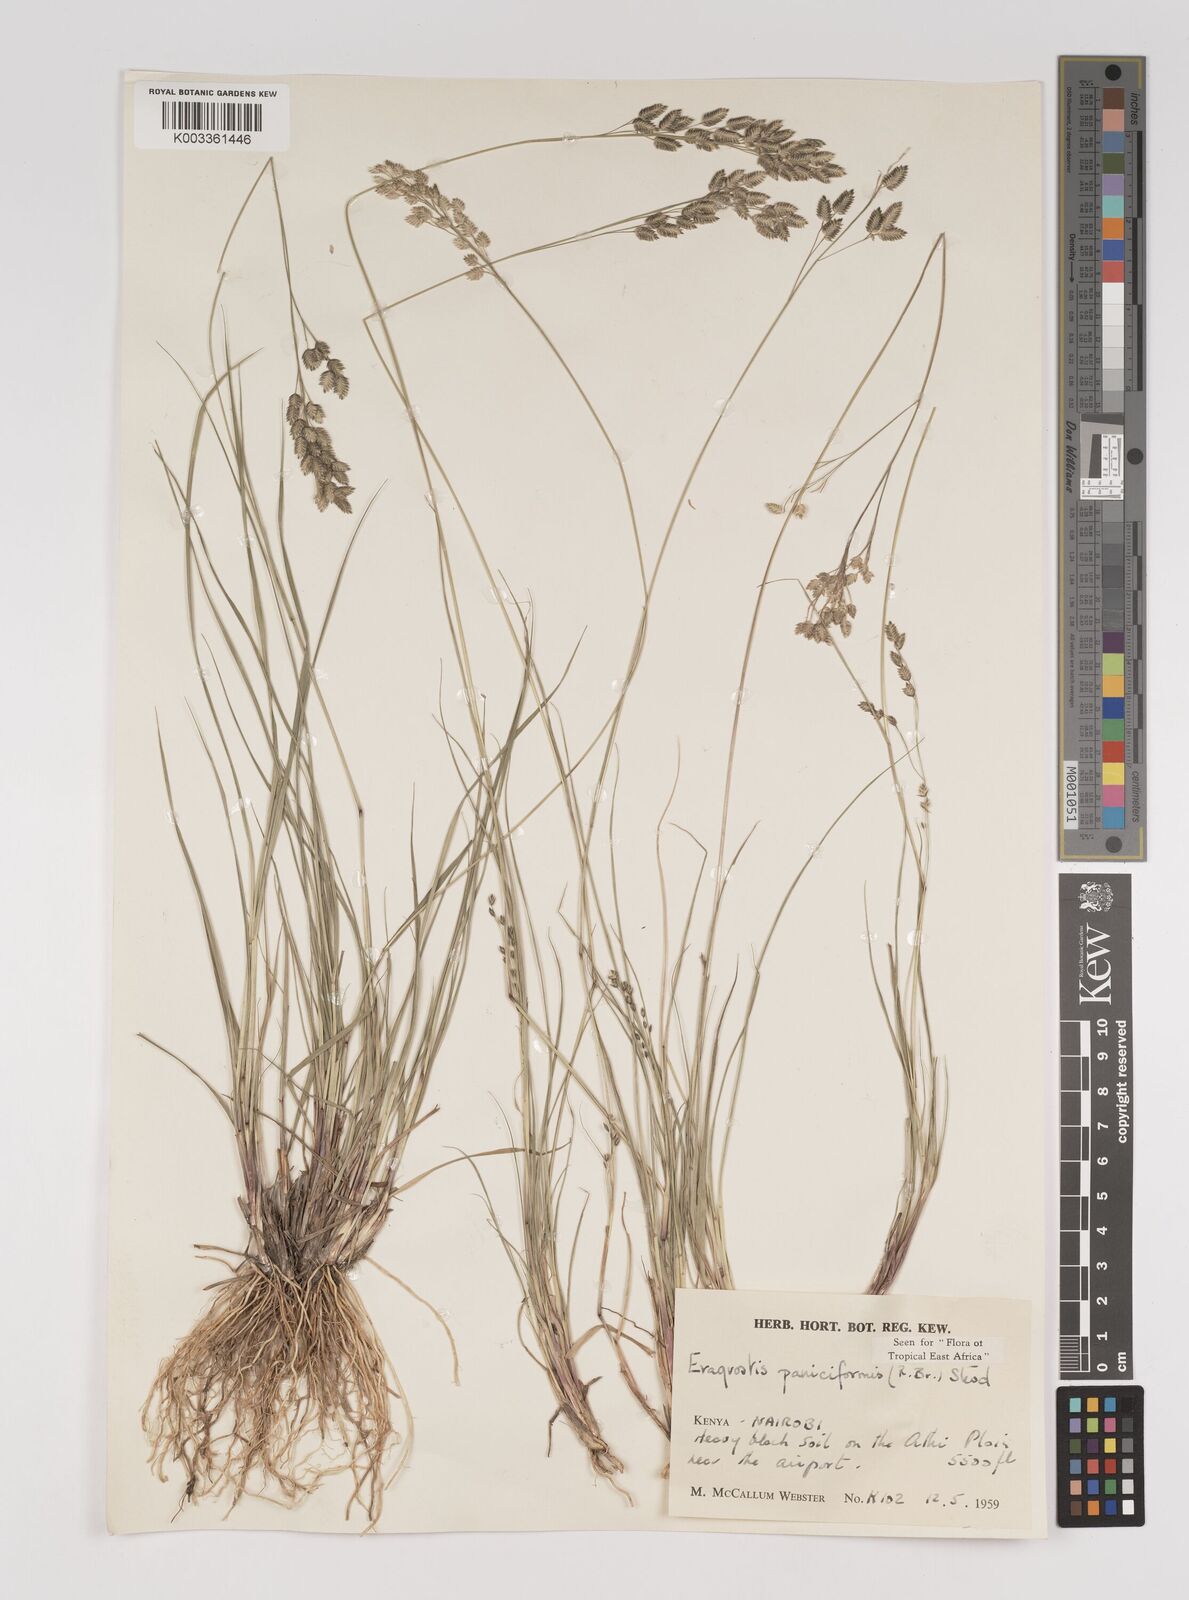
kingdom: Plantae
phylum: Tracheophyta
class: Liliopsida
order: Poales
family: Poaceae
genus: Eragrostis
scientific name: Eragrostis paniciformis
